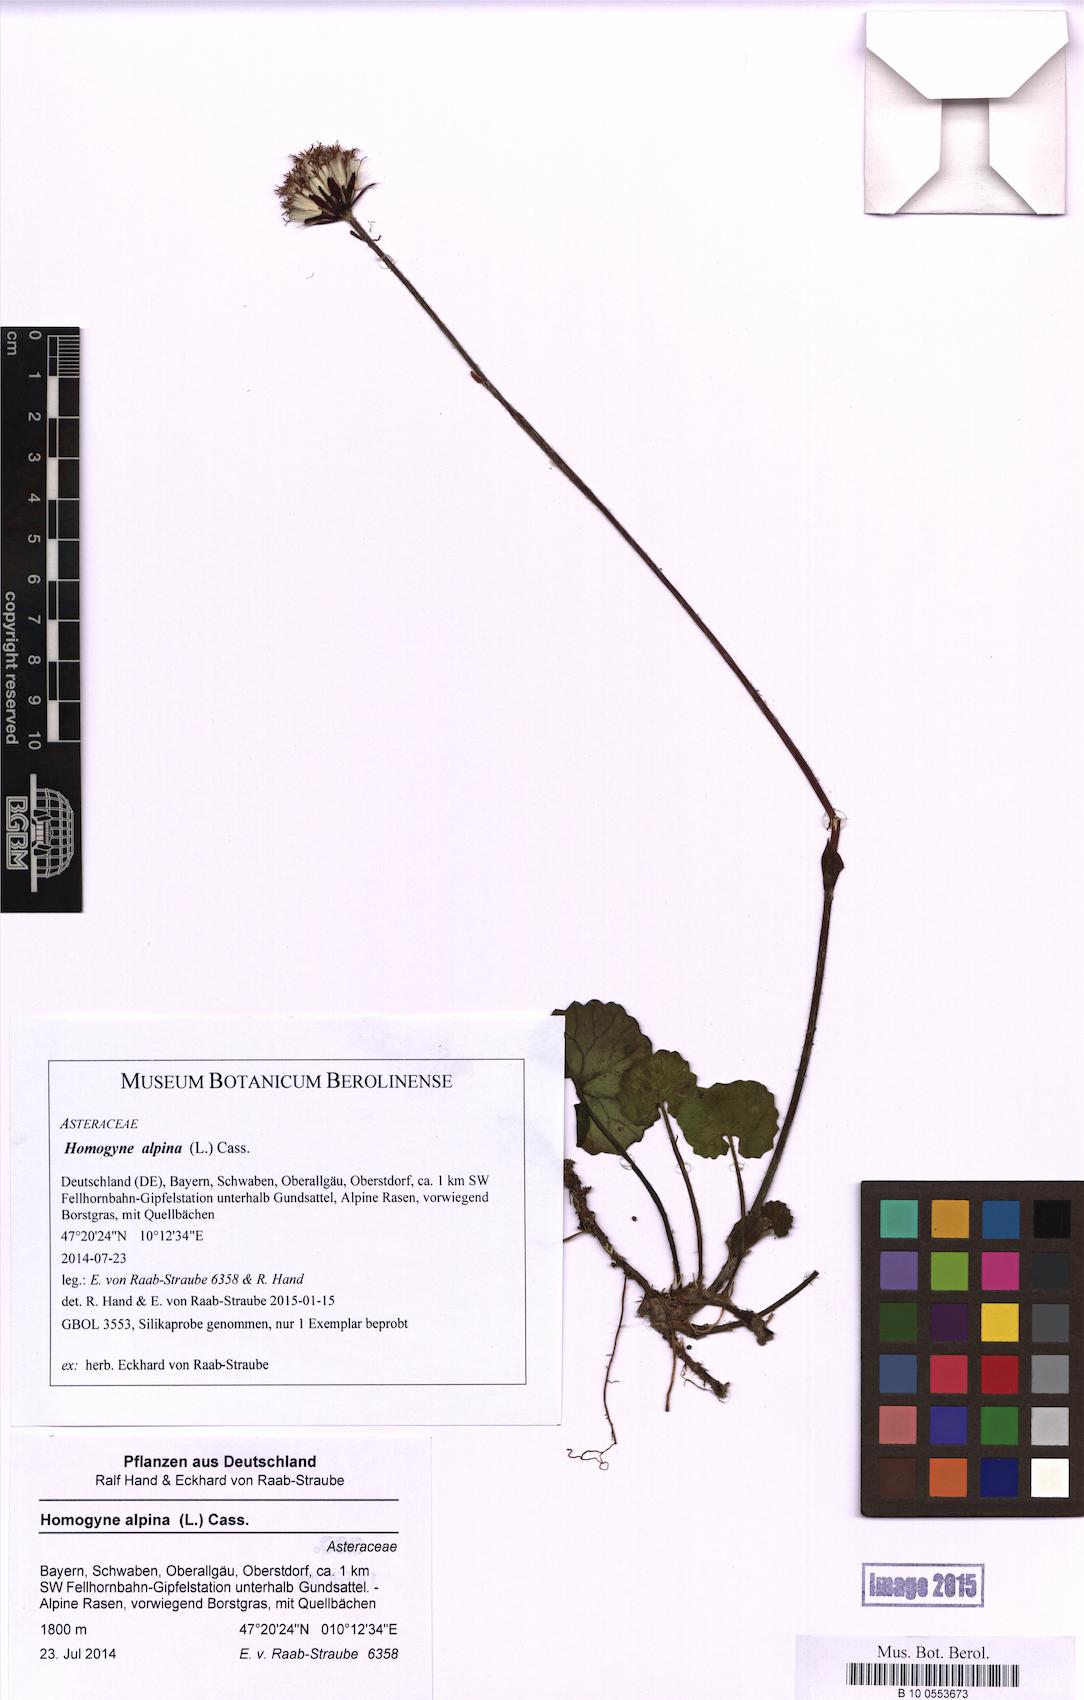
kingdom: Plantae
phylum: Tracheophyta
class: Magnoliopsida
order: Asterales
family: Asteraceae
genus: Homogyne
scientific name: Homogyne alpina
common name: Purple colt's-foot
